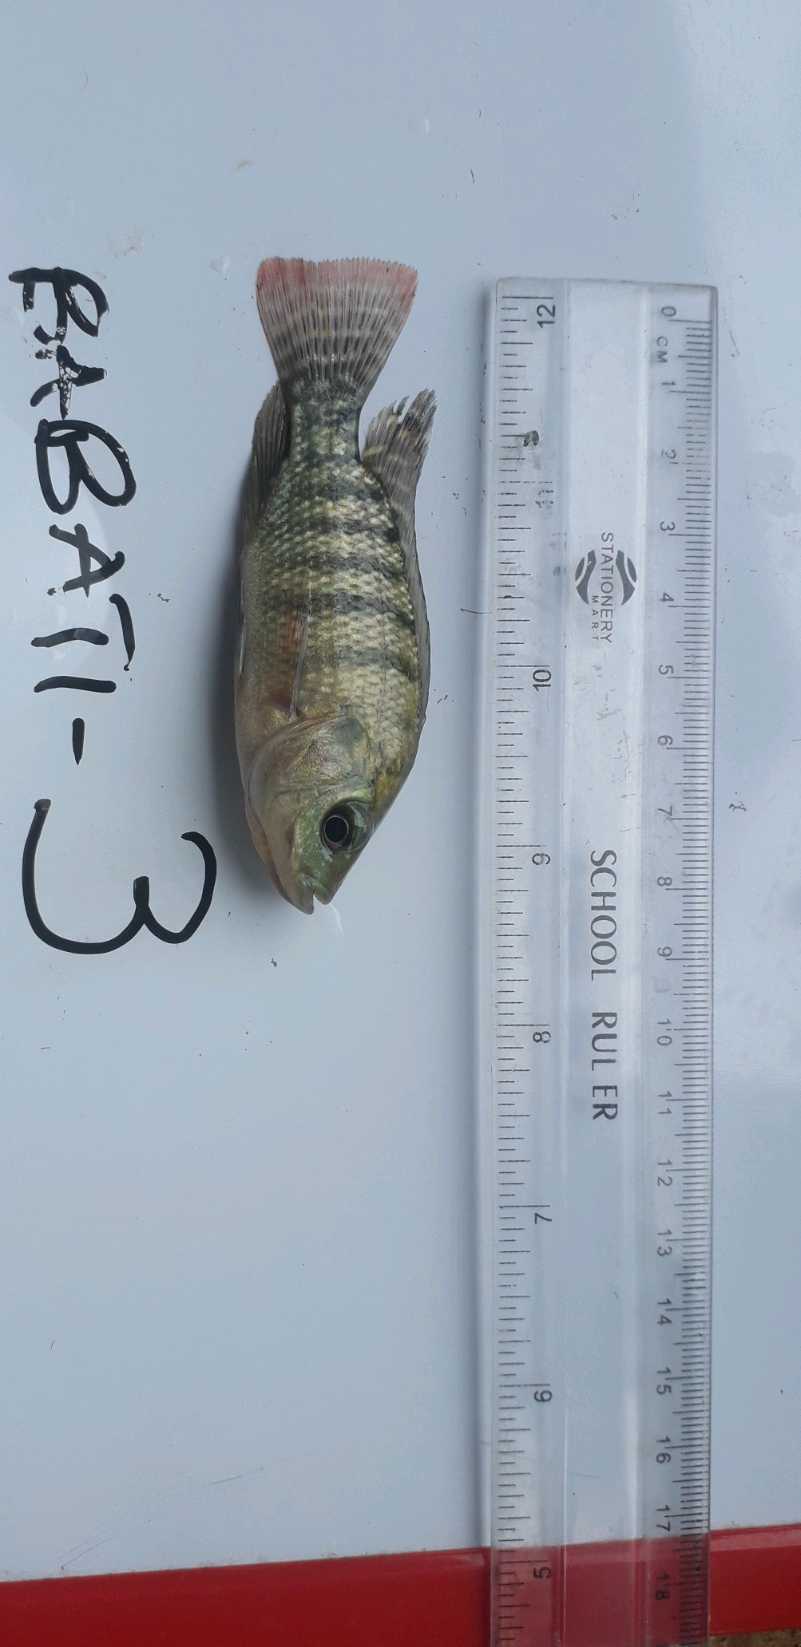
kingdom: Animalia
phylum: Chordata
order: Perciformes
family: Cichlidae
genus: Oreochromis
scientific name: Oreochromis niloticus
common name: Nile tilapia
